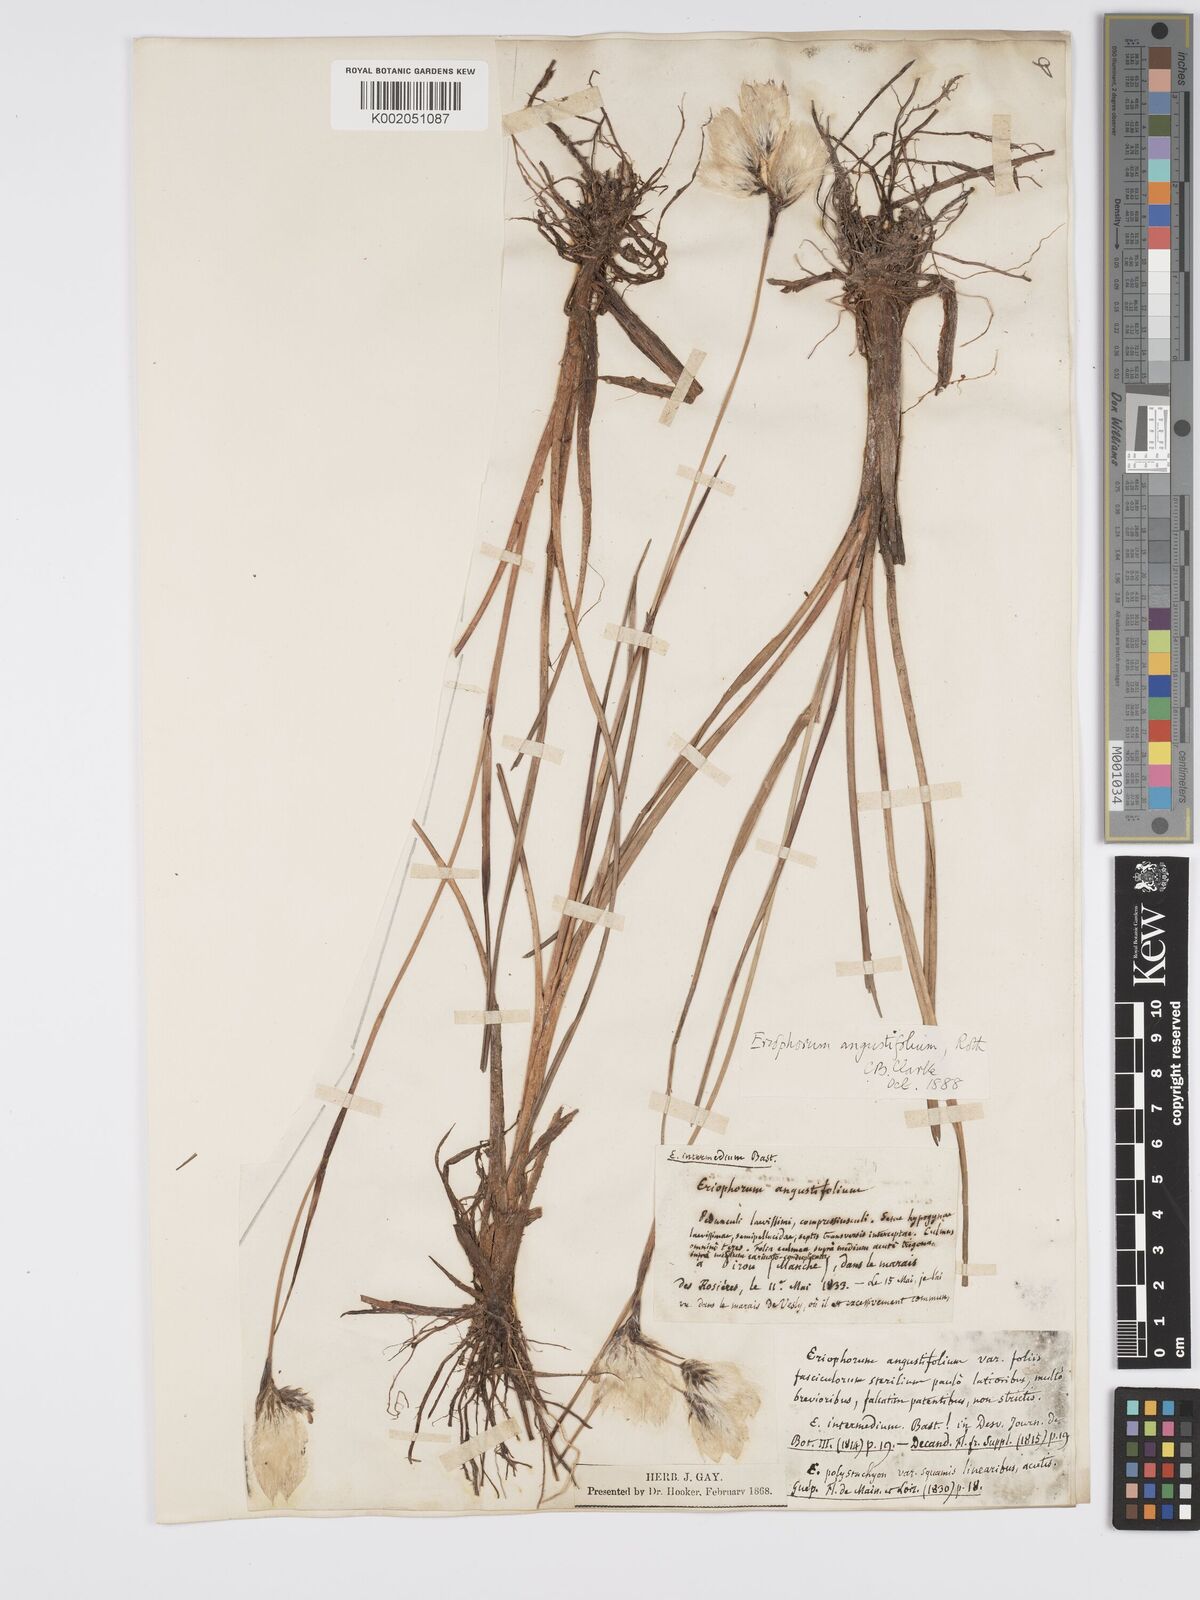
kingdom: Plantae
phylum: Tracheophyta
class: Liliopsida
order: Poales
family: Cyperaceae
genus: Eriophorum
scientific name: Eriophorum angustifolium
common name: Common cottongrass
